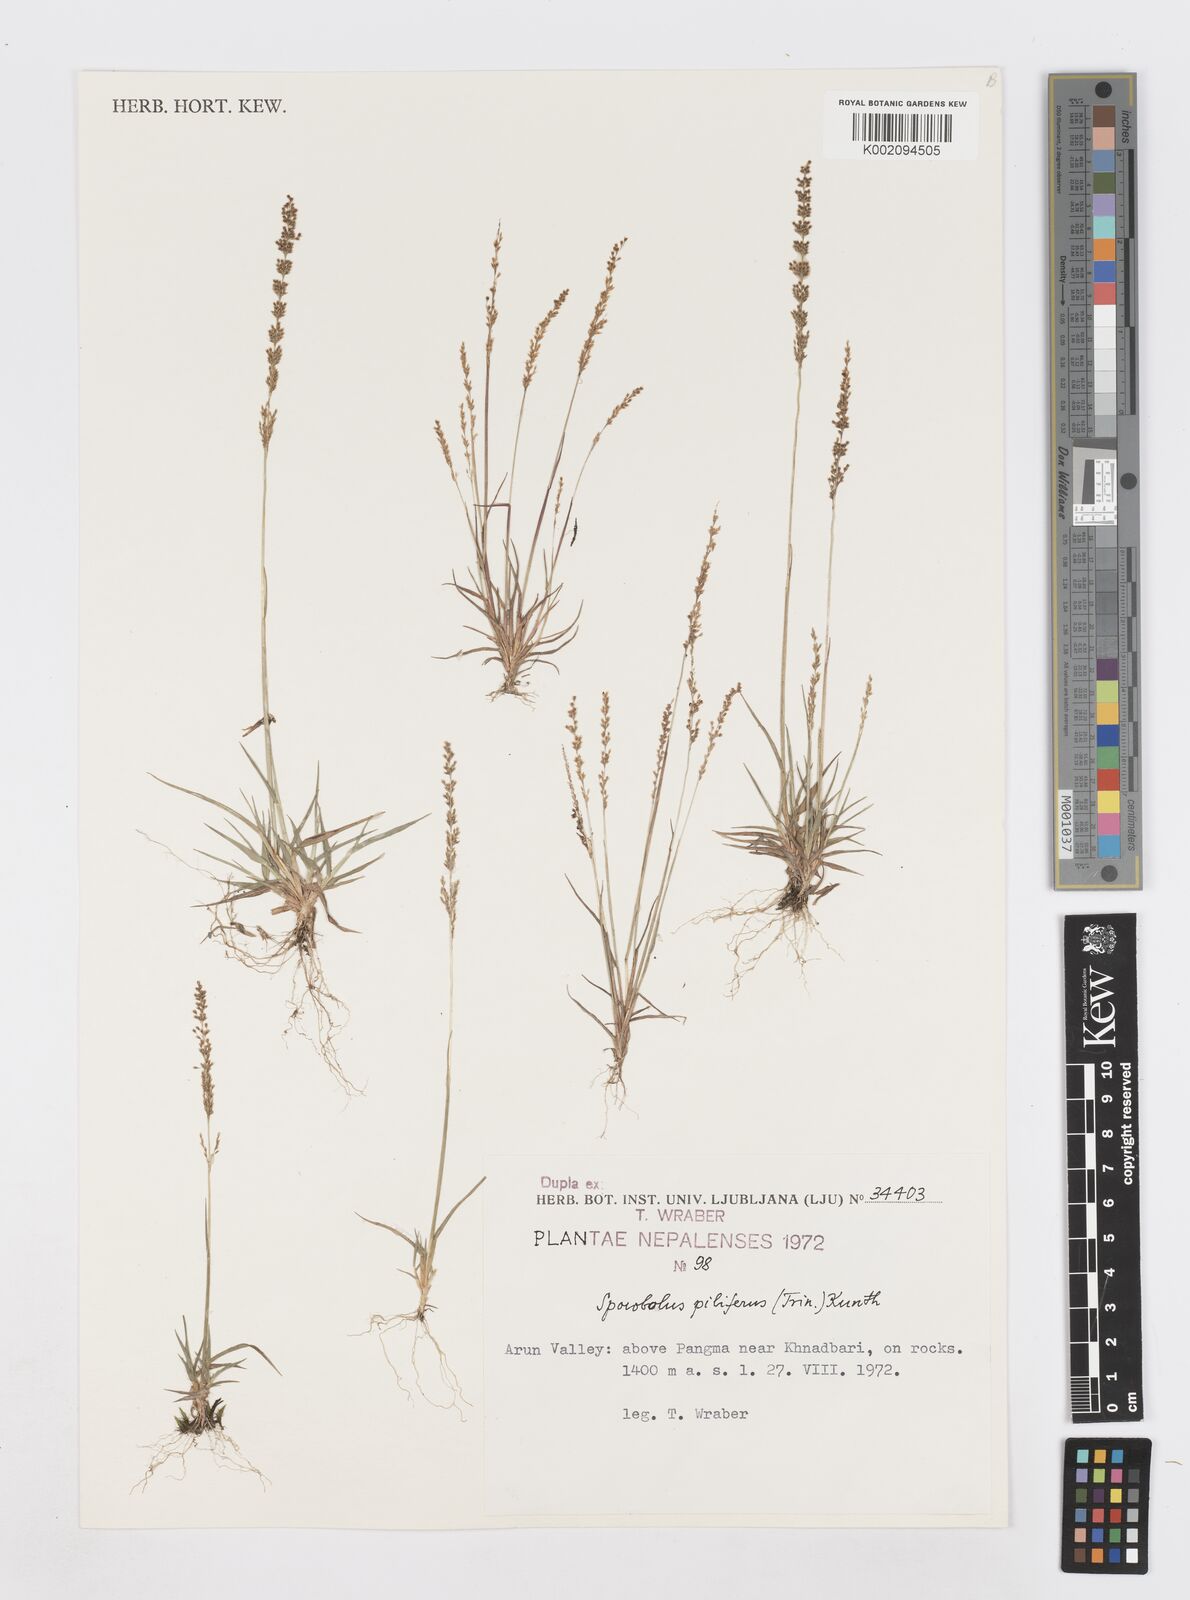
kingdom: Plantae
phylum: Tracheophyta
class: Liliopsida
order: Poales
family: Poaceae
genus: Sporobolus
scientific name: Sporobolus pilifer
